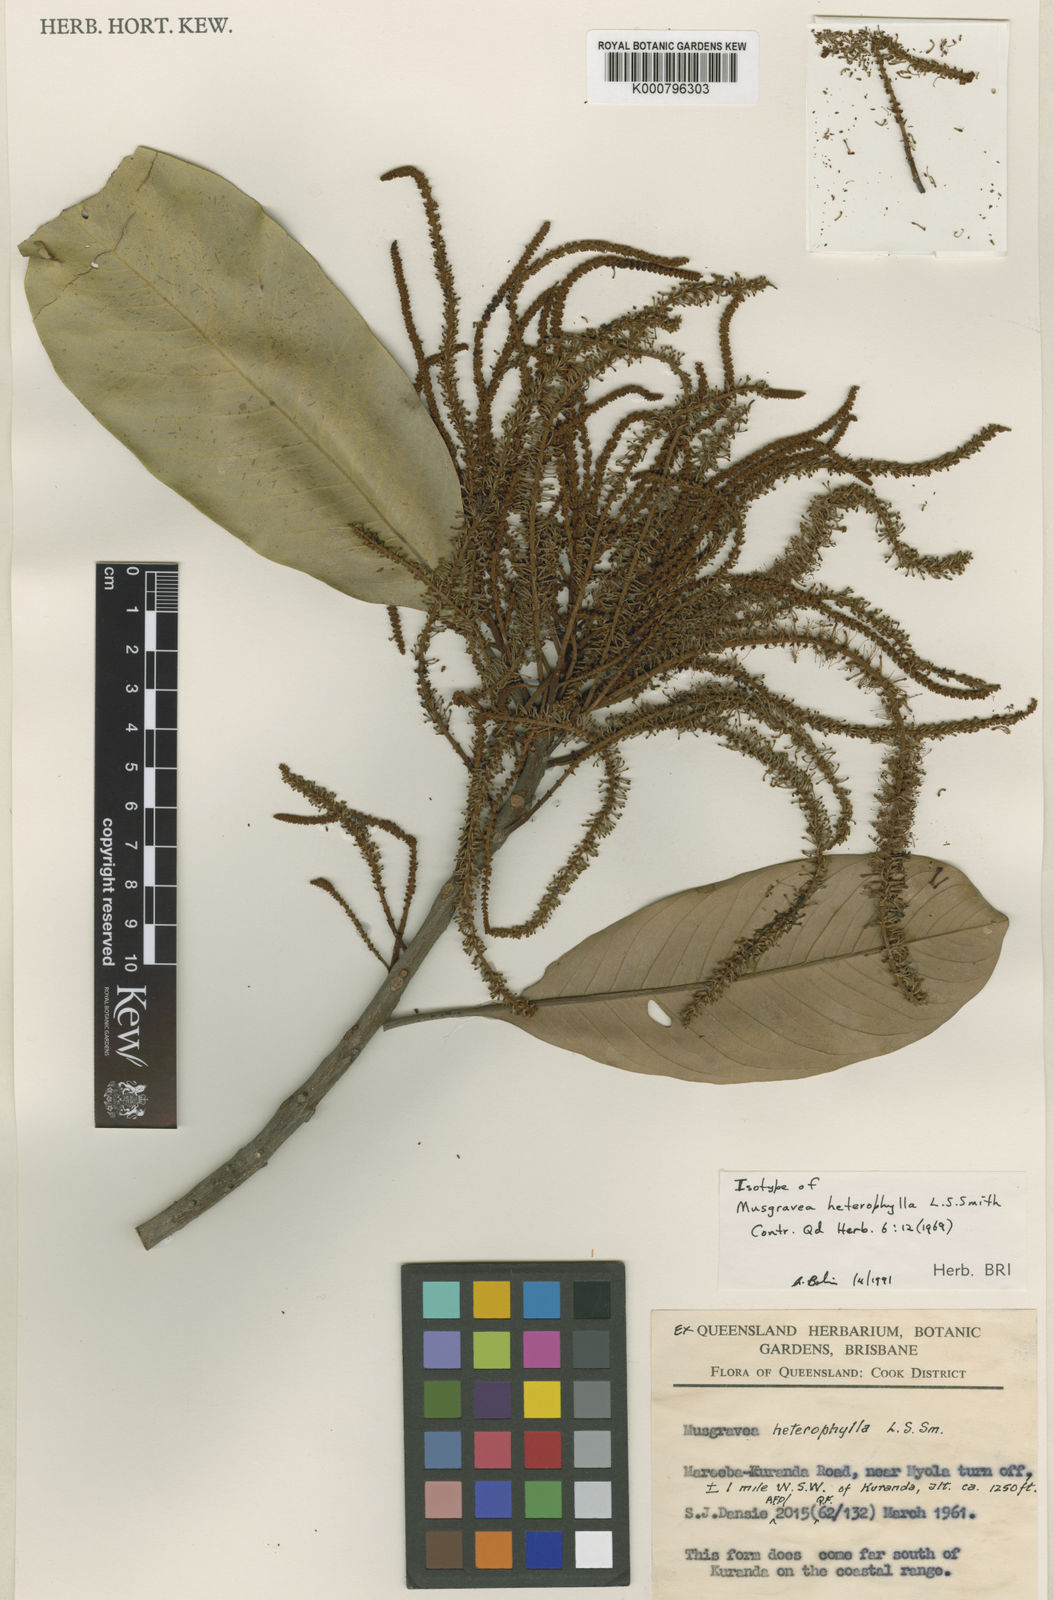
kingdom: Plantae
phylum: Tracheophyta
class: Magnoliopsida
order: Proteales
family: Proteaceae
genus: Musgravea
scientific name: Musgravea heterophylla
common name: Briar oak
